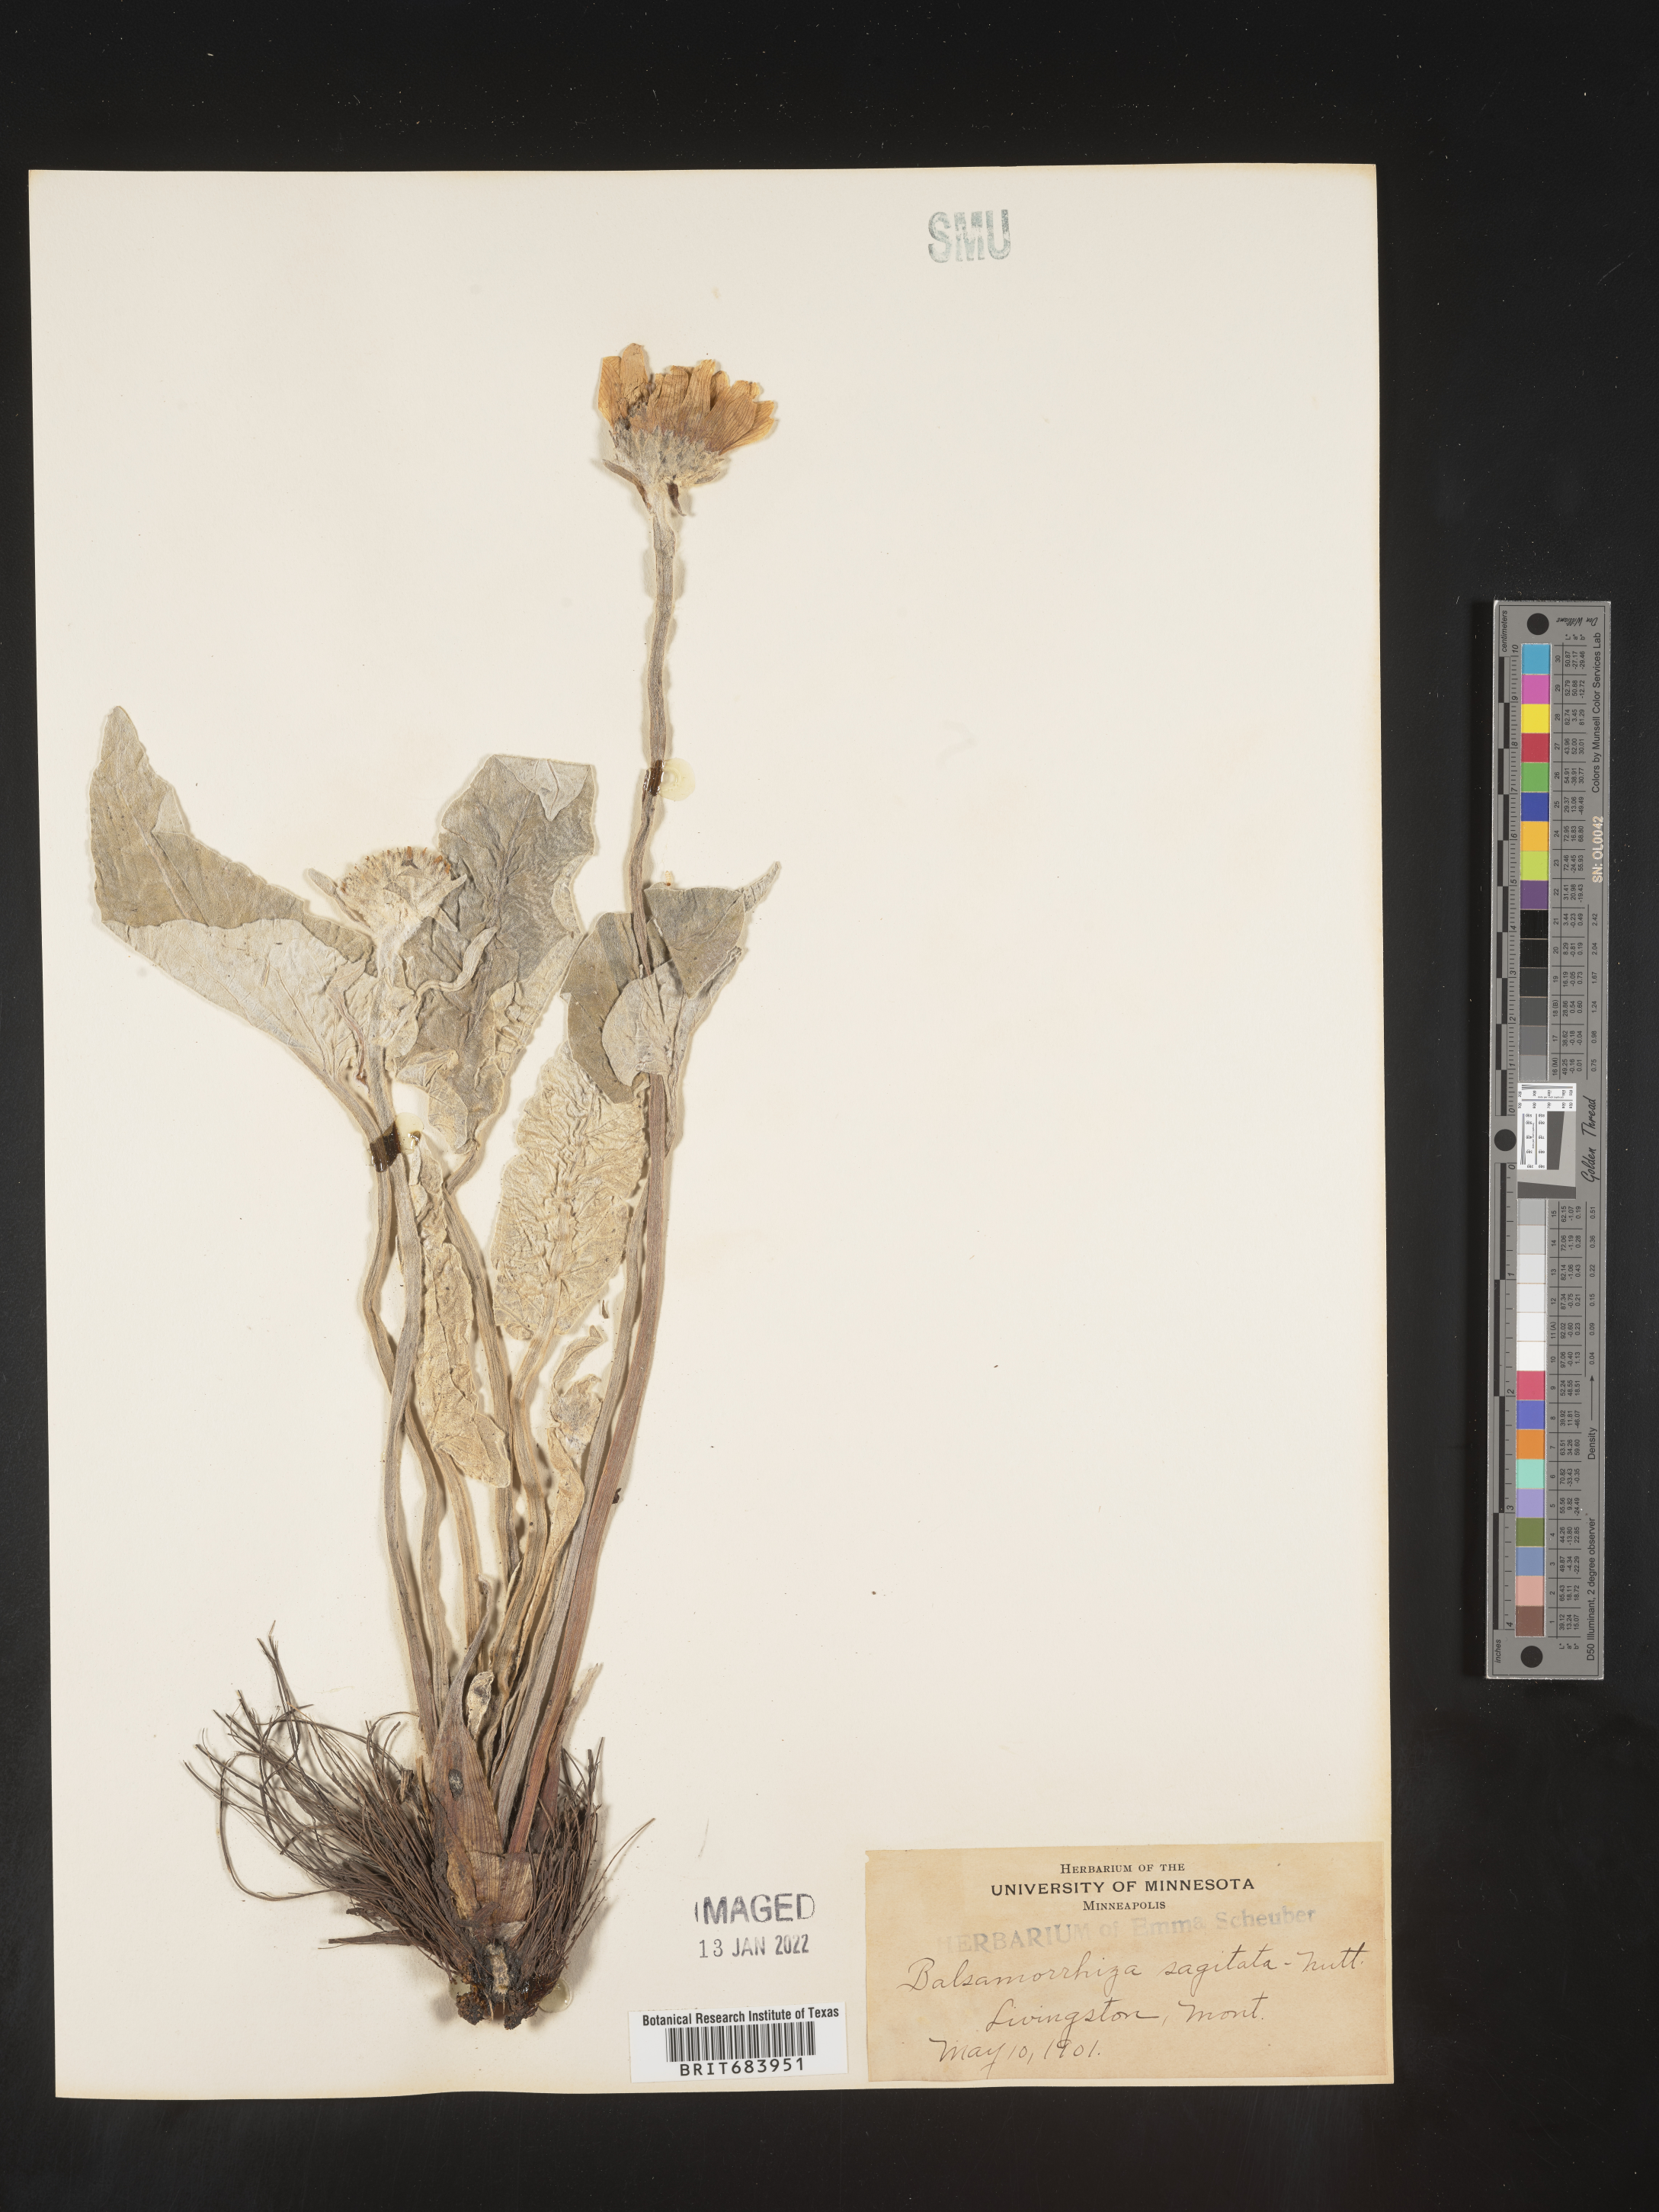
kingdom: Plantae
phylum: Tracheophyta
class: Magnoliopsida
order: Asterales
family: Asteraceae
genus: Wyethia
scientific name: Wyethia sagittata
